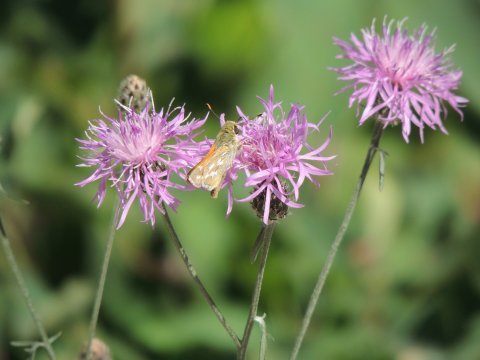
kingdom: Animalia
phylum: Arthropoda
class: Insecta
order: Lepidoptera
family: Hesperiidae
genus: Hesperia
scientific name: Hesperia comma
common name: Western Branded Skipper
